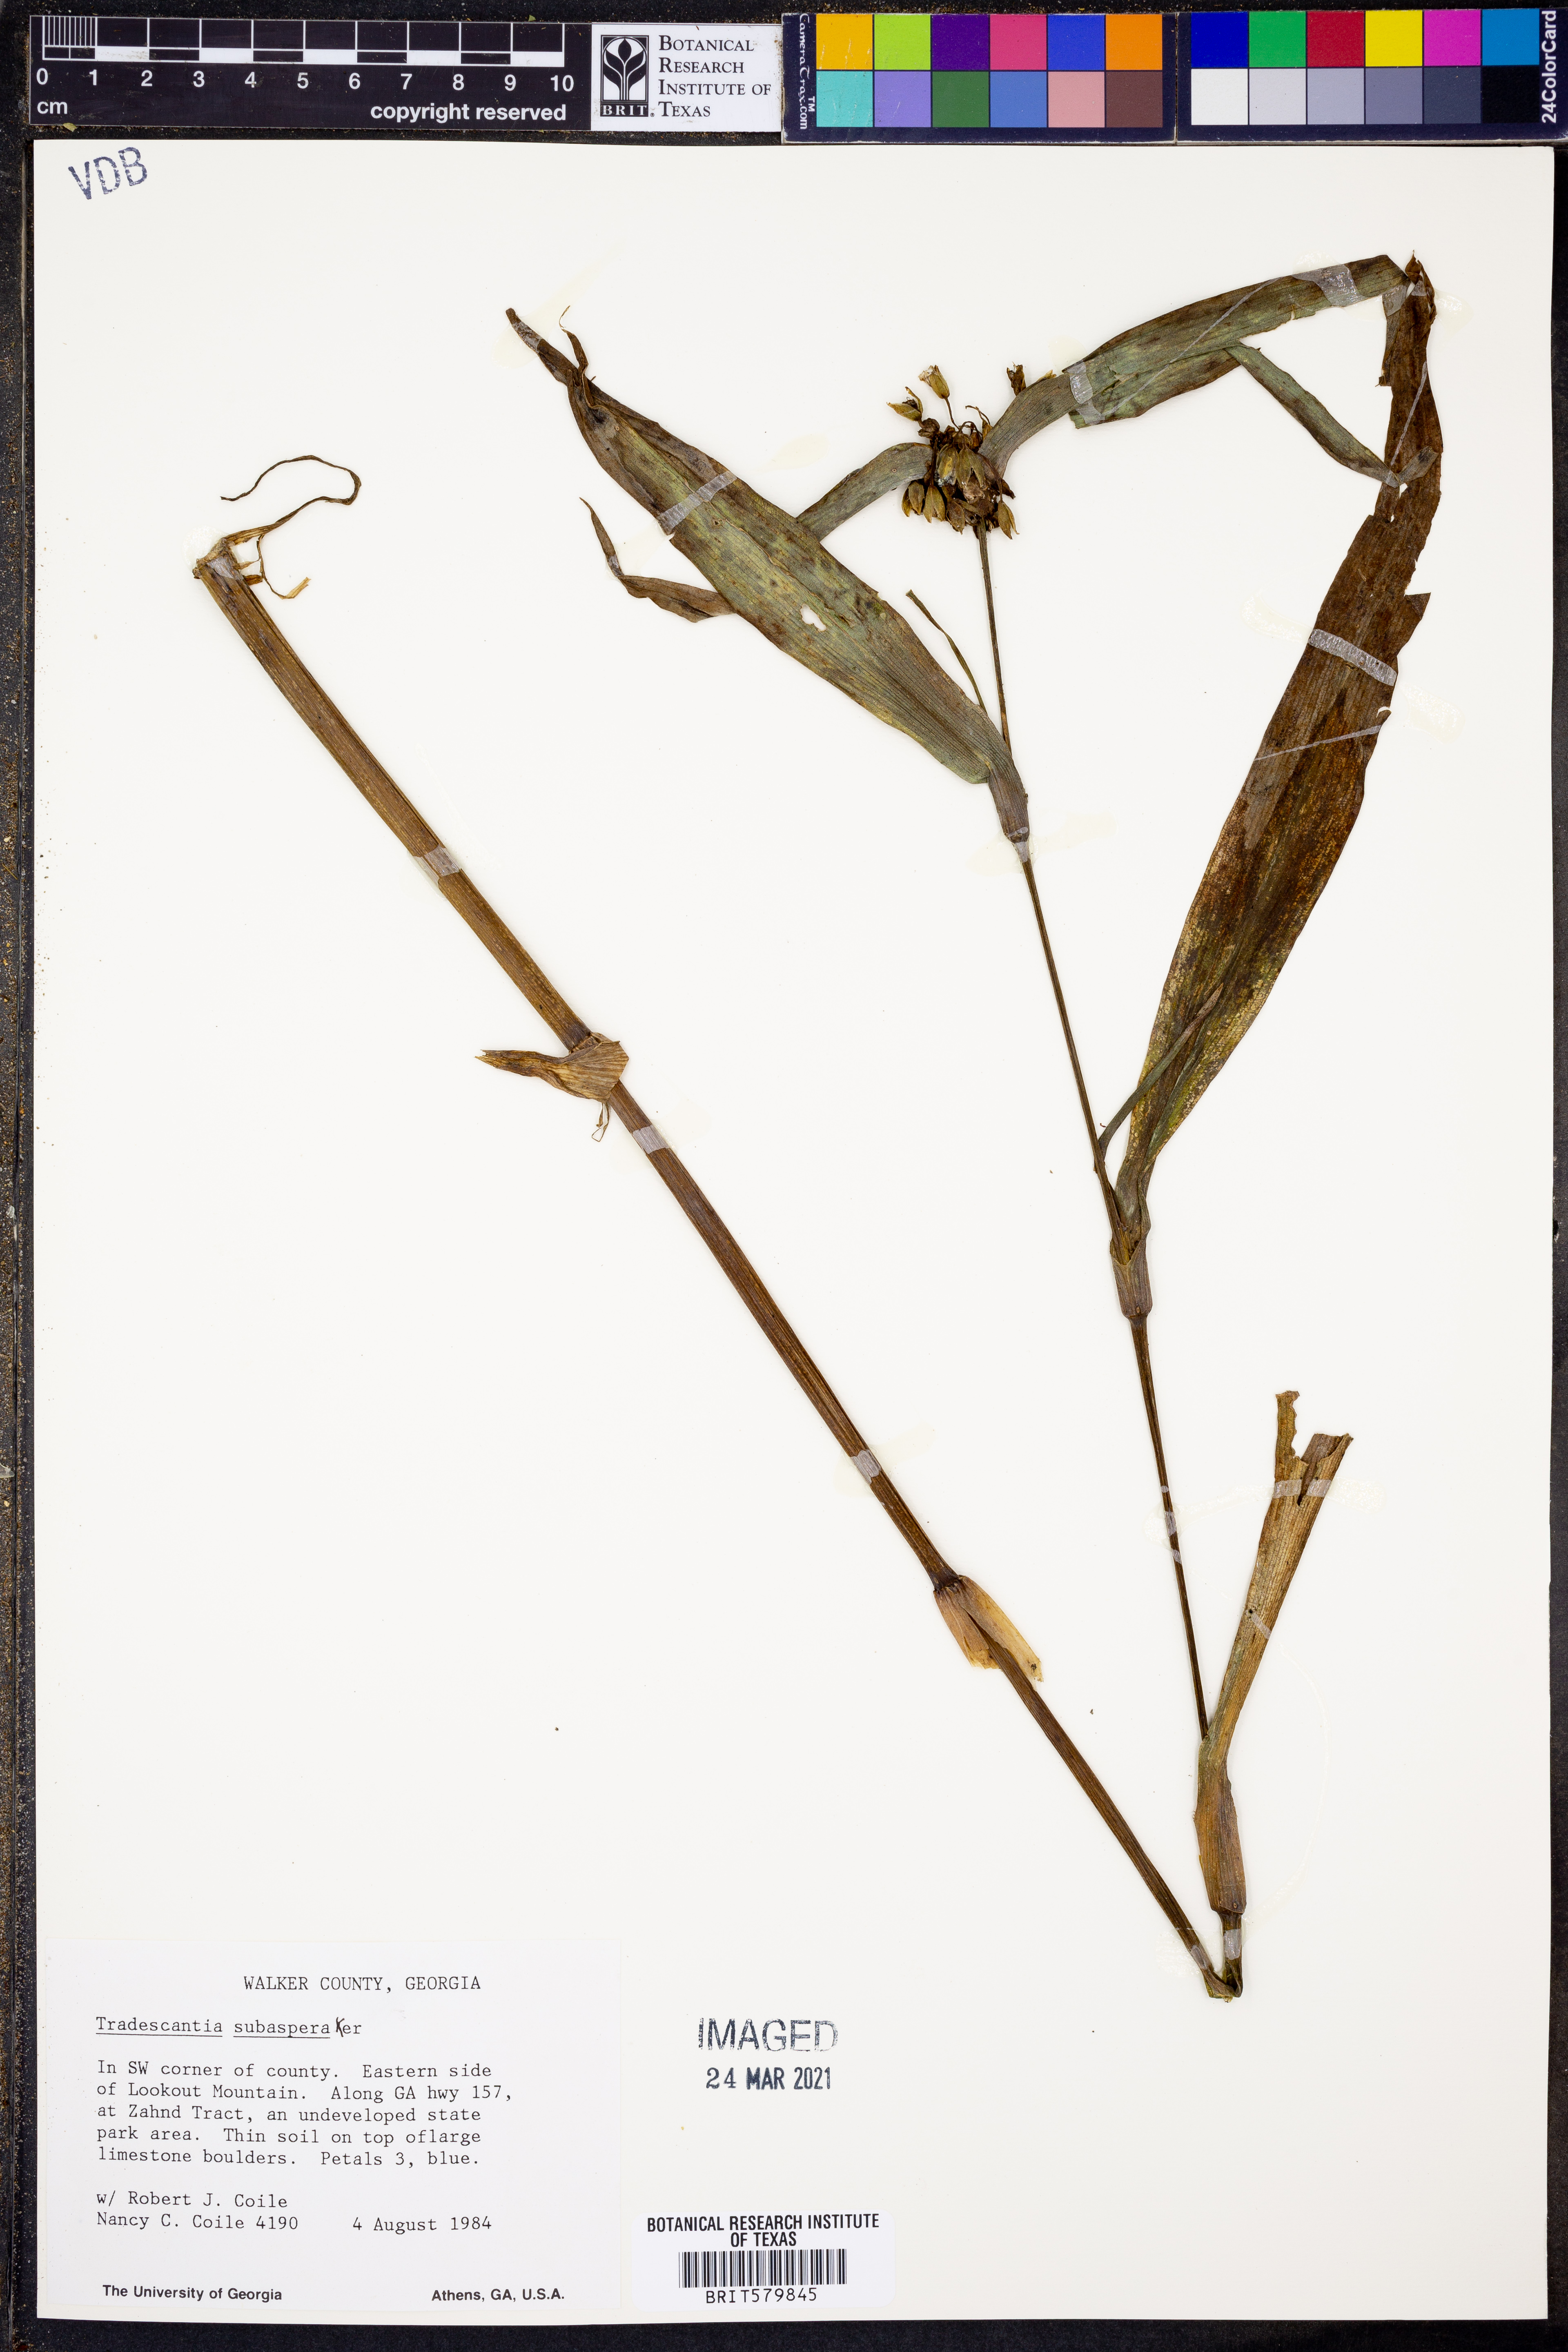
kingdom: Plantae
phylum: Tracheophyta
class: Liliopsida
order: Commelinales
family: Commelinaceae
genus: Tradescantia
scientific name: Tradescantia subaspera
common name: Wide-leaf spiderwort
